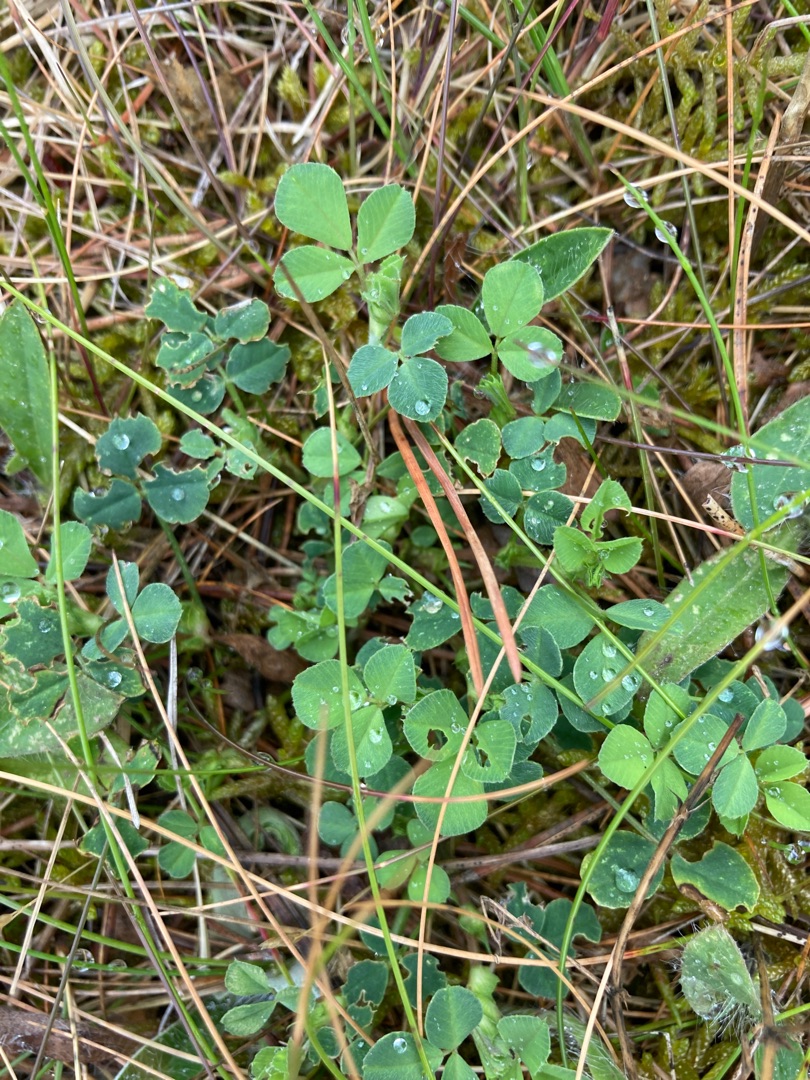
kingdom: Plantae
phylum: Tracheophyta
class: Magnoliopsida
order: Fabales
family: Fabaceae
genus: Trifolium
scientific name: Trifolium
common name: Kløverslægten
